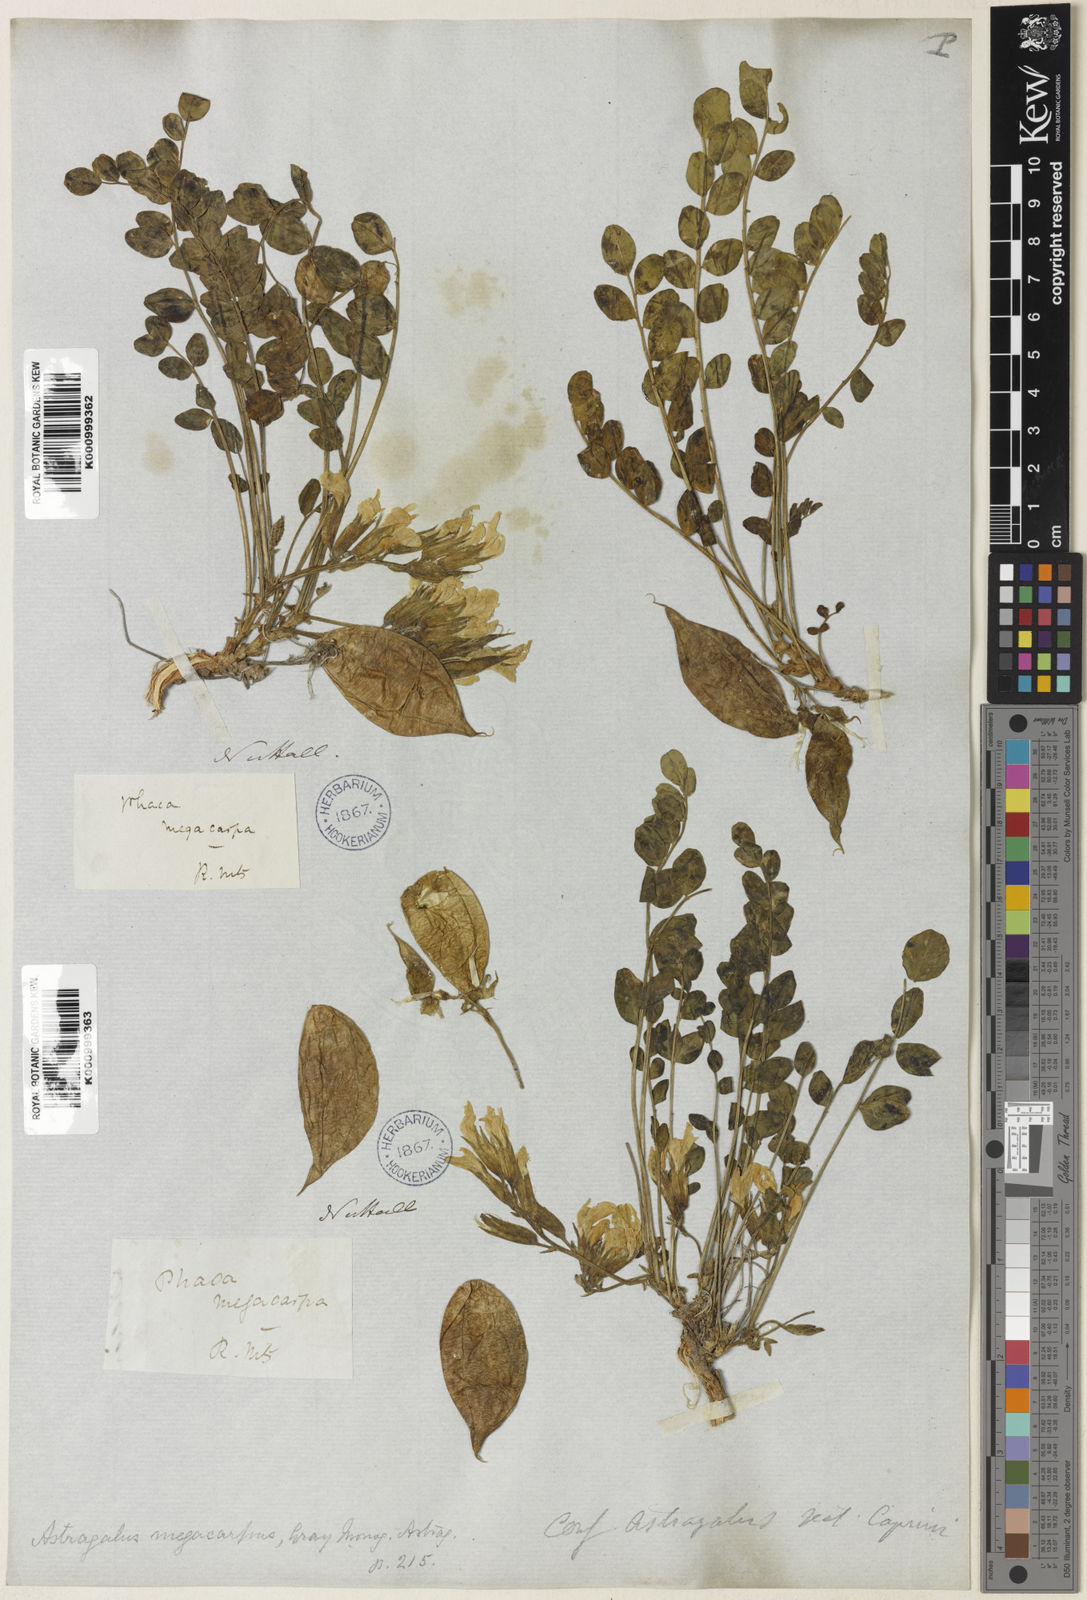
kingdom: Plantae
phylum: Tracheophyta
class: Magnoliopsida
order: Fabales
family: Fabaceae
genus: Astragalus
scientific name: Astragalus megacarpus
